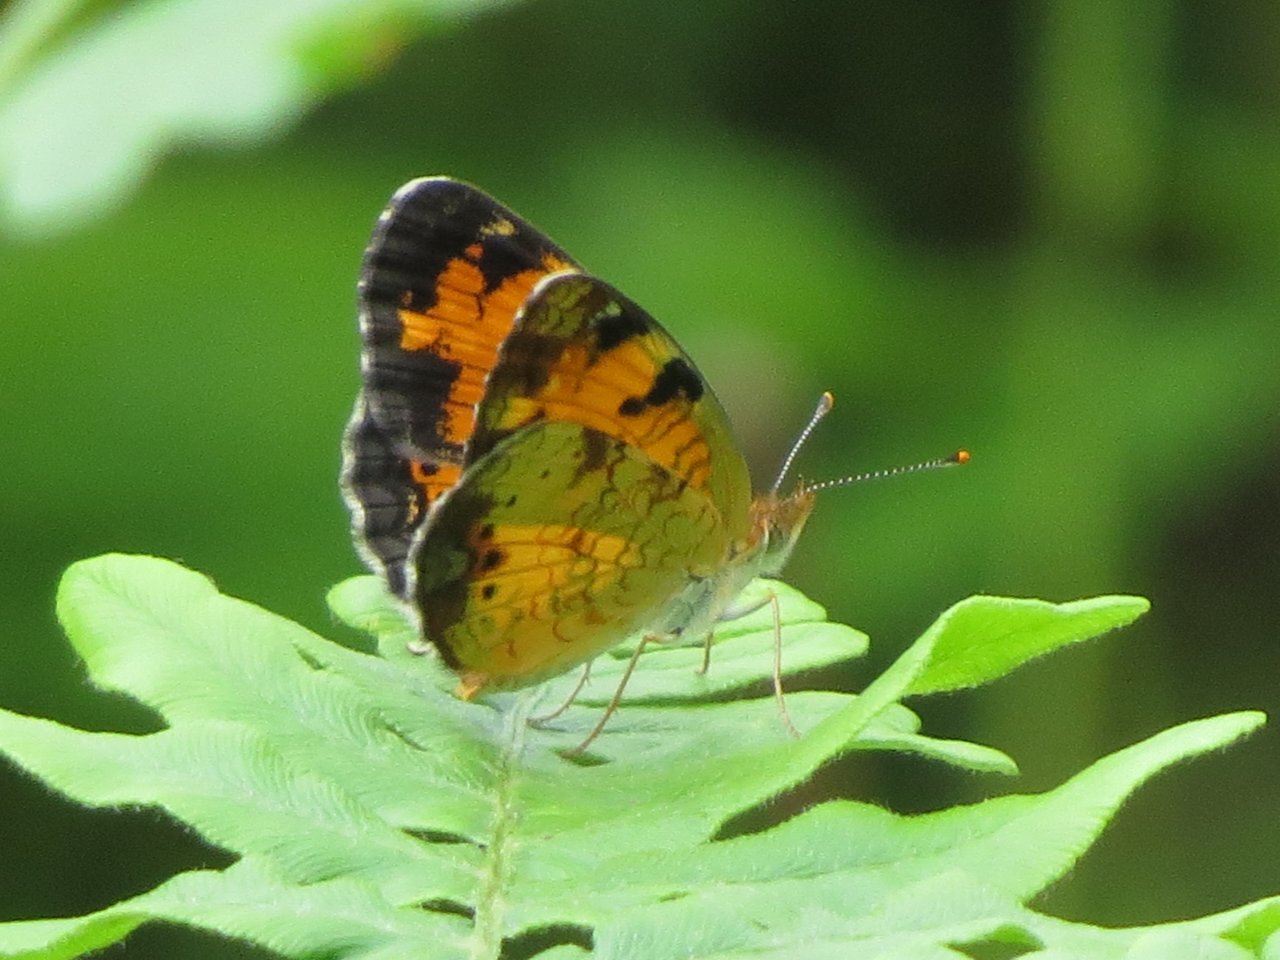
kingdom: Animalia
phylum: Arthropoda
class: Insecta
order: Lepidoptera
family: Nymphalidae
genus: Phyciodes
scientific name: Phyciodes tharos
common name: Northern Crescent
